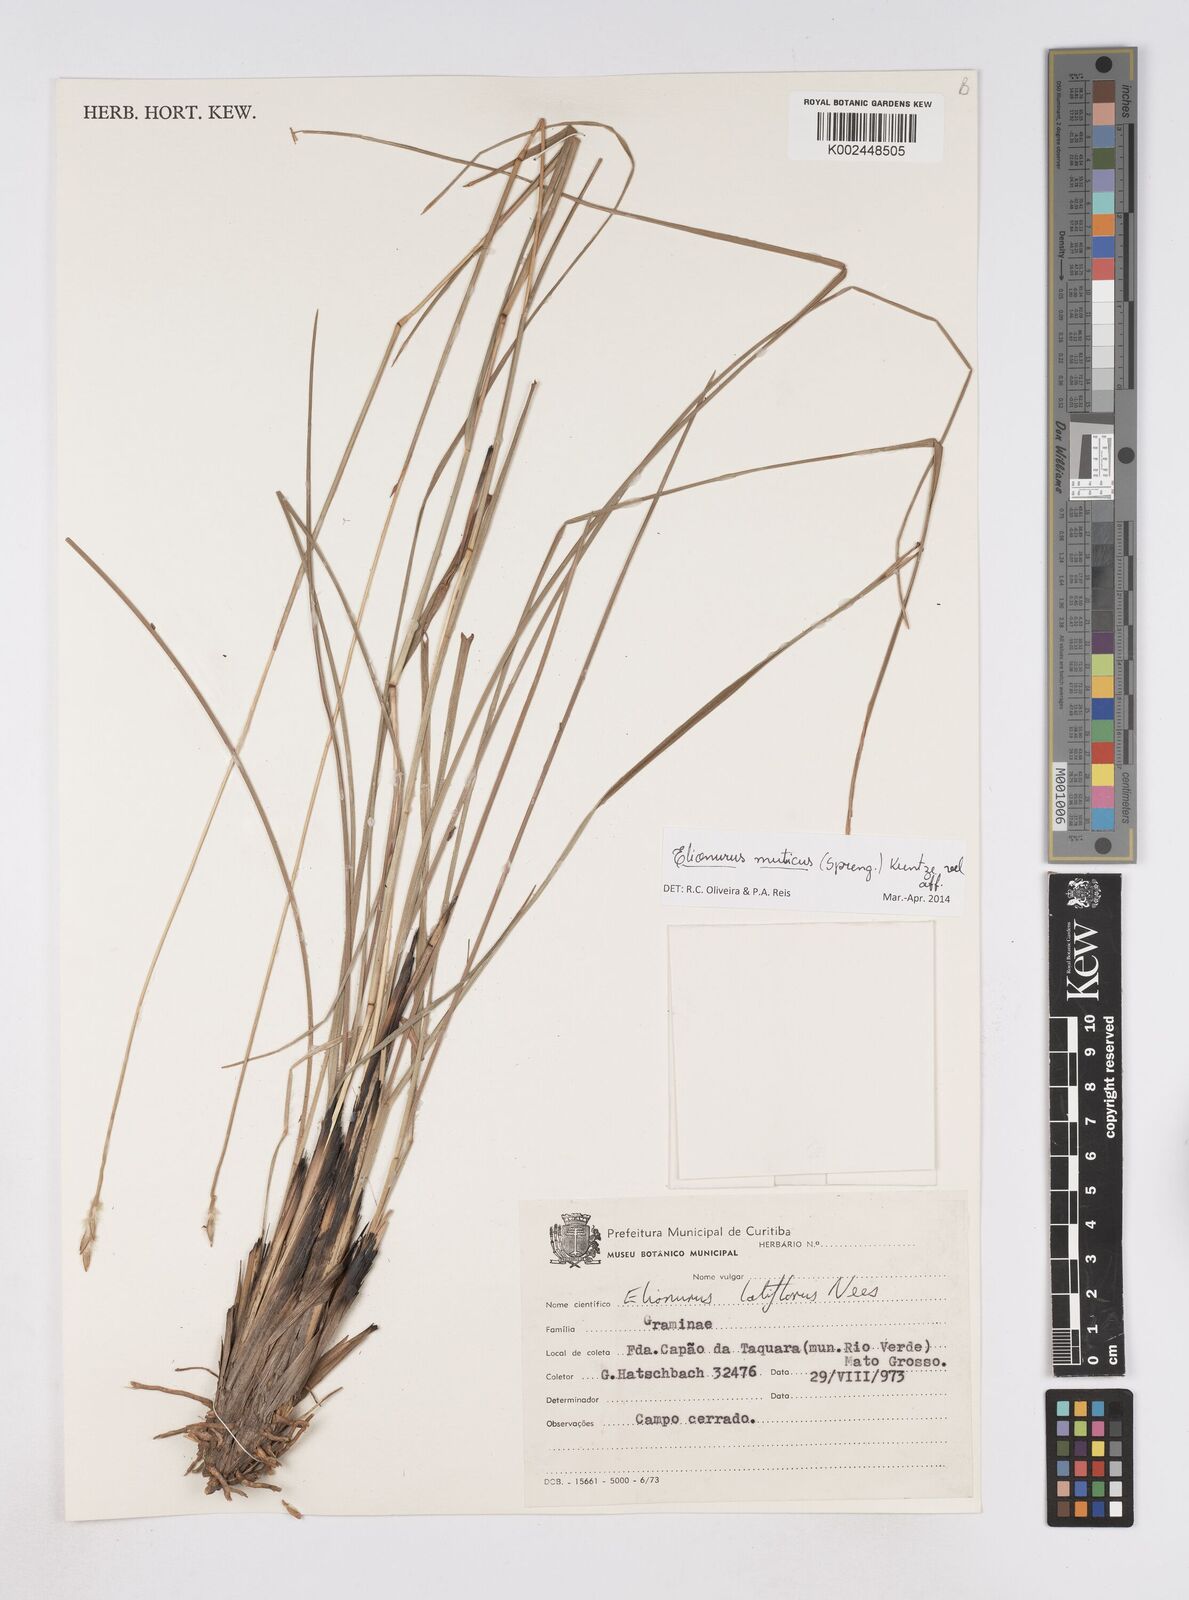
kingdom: Plantae
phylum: Tracheophyta
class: Liliopsida
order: Poales
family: Poaceae
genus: Elionurus
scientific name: Elionurus muticus
